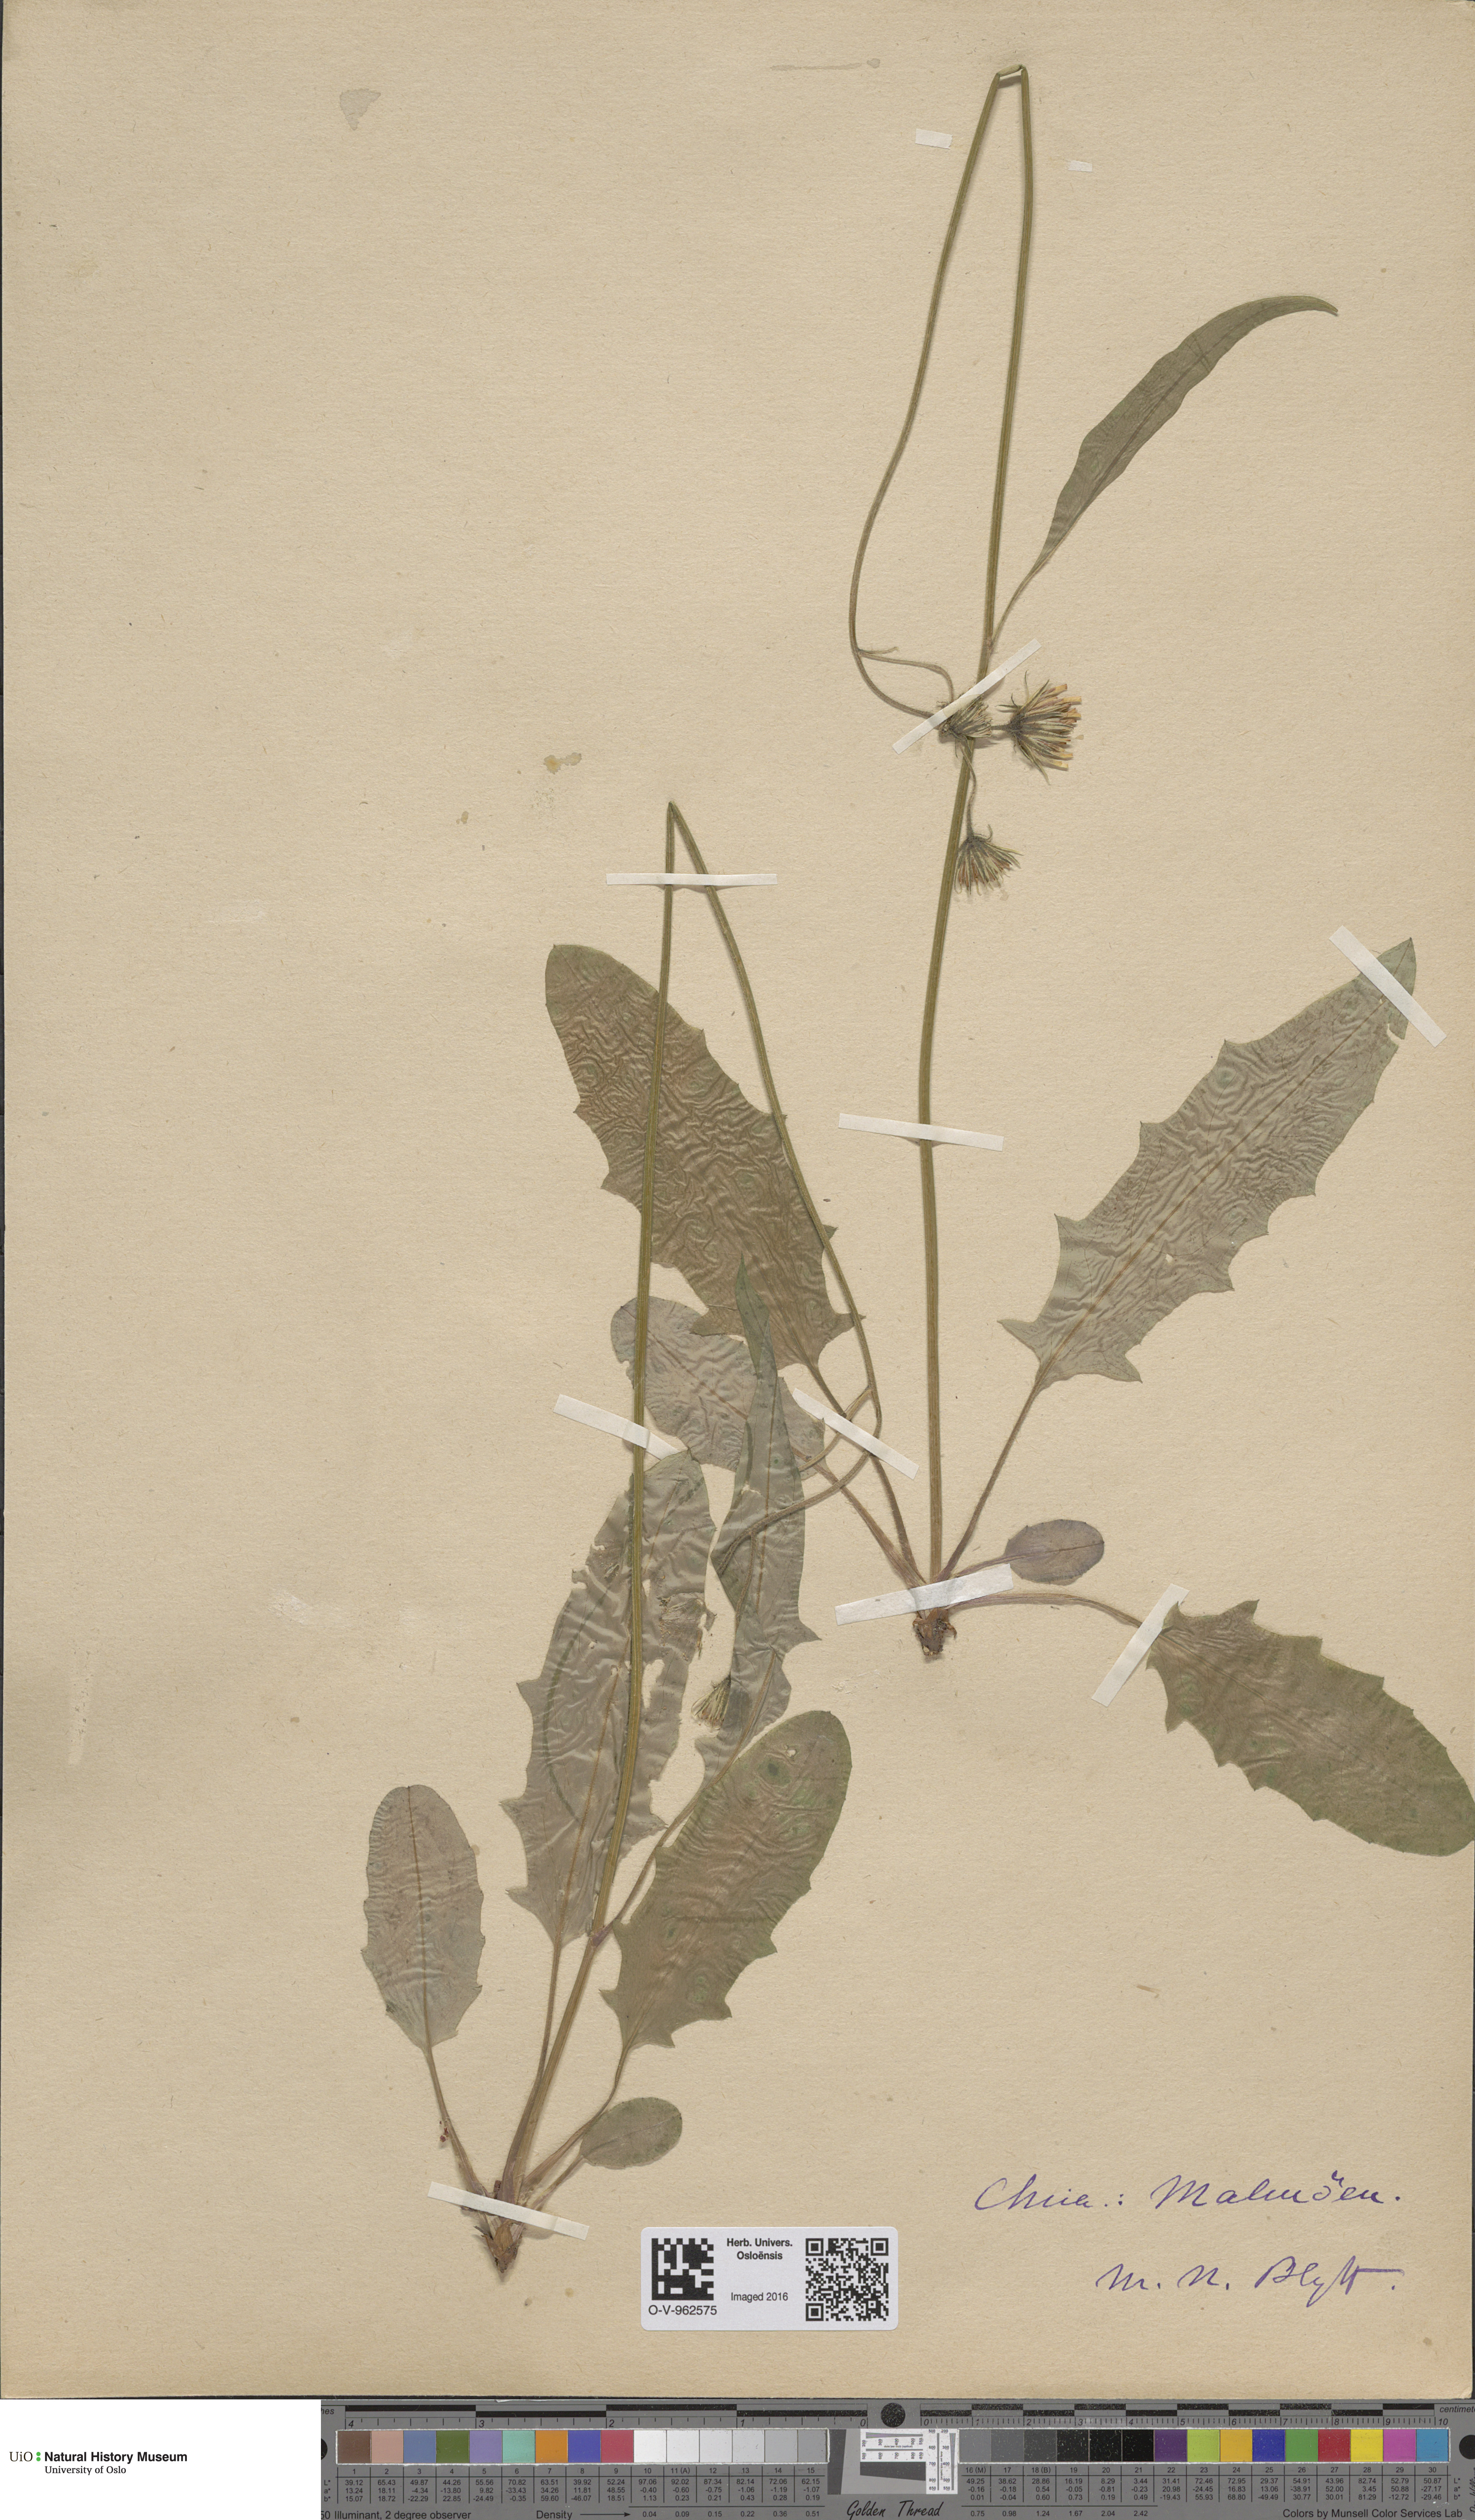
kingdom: Plantae
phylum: Tracheophyta
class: Magnoliopsida
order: Asterales
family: Asteraceae
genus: Hieracium
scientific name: Hieracium
